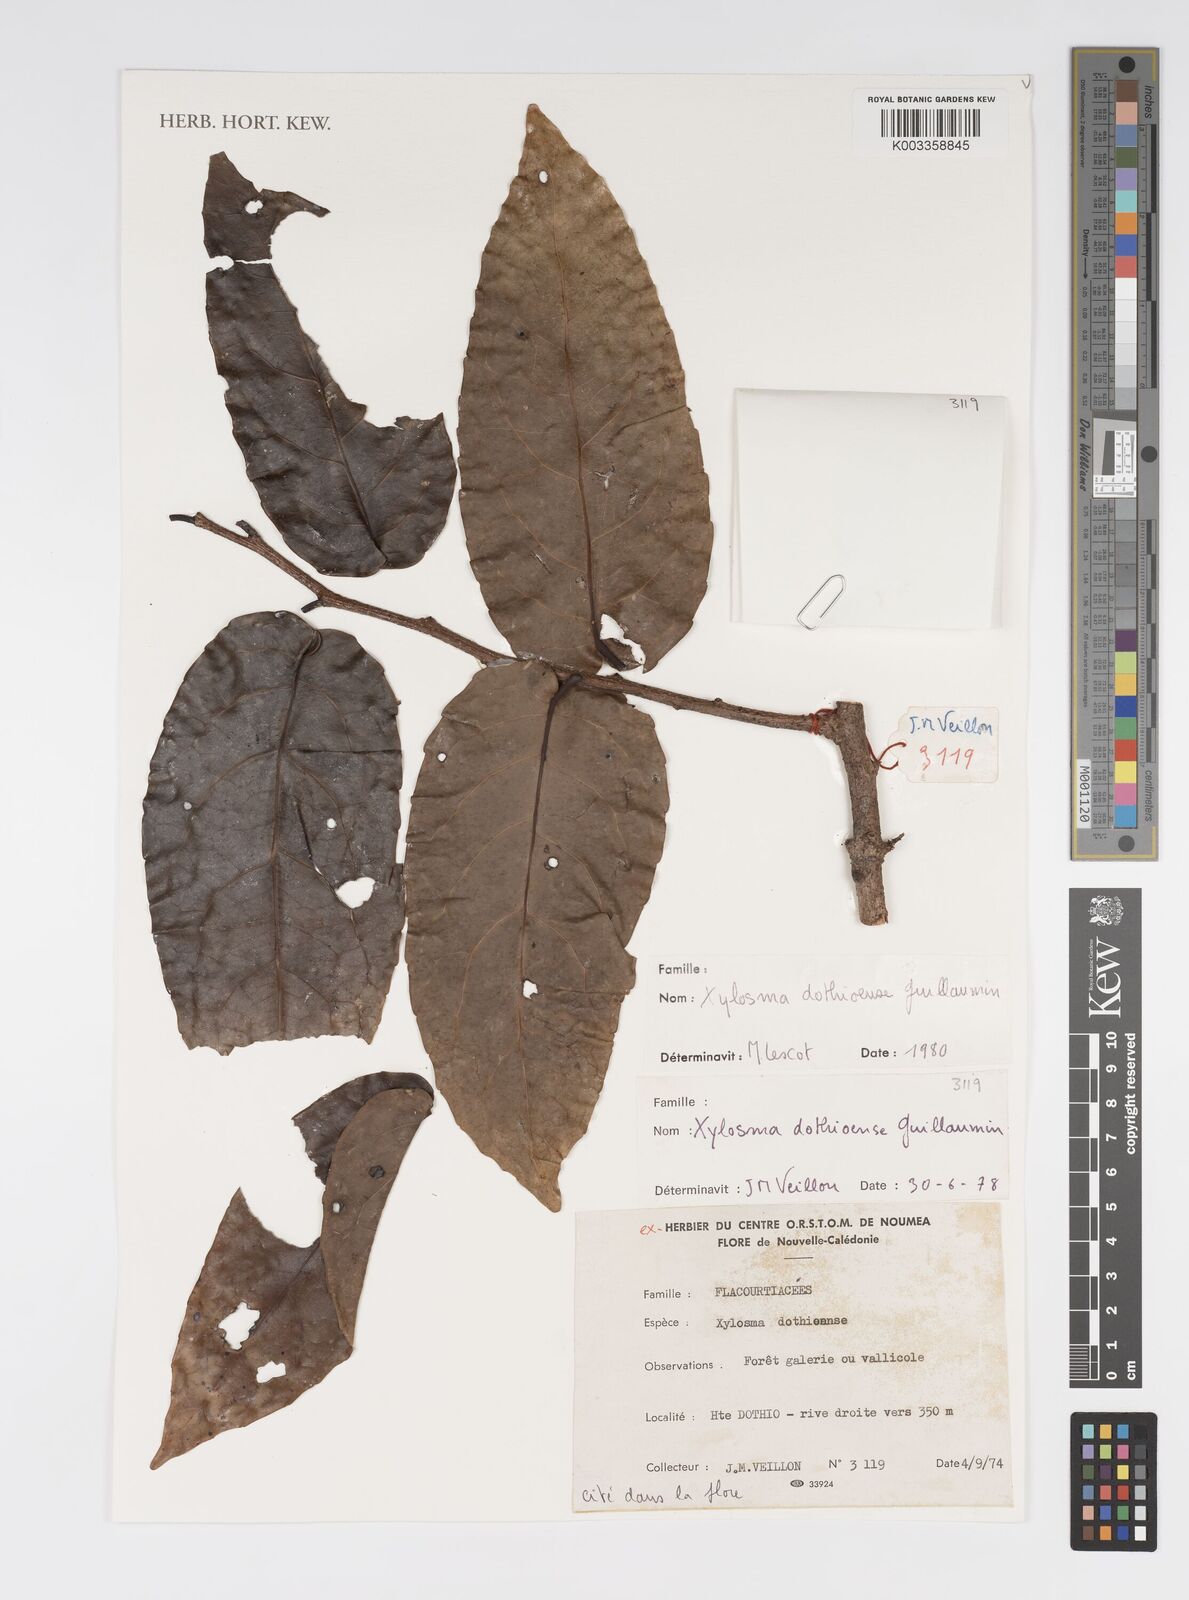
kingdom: Plantae
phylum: Tracheophyta
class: Magnoliopsida
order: Malpighiales
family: Salicaceae
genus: Xylosma
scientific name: Xylosma dothioensis
